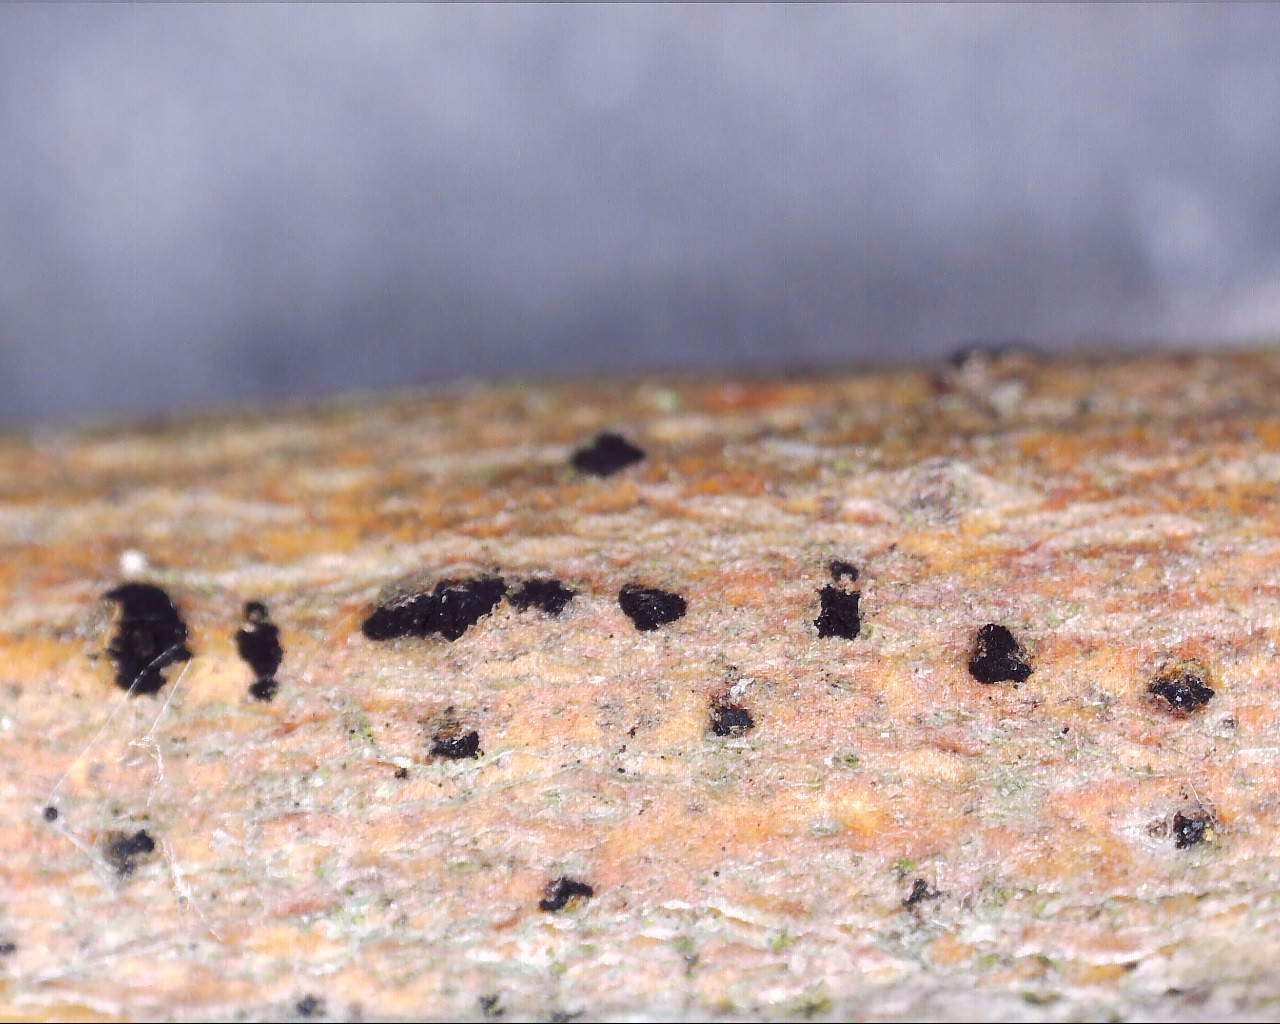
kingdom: Fungi
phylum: Ascomycota
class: Leotiomycetes
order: Helotiales
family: Mollisiaceae
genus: Trimmatostroma
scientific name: Trimmatostroma
